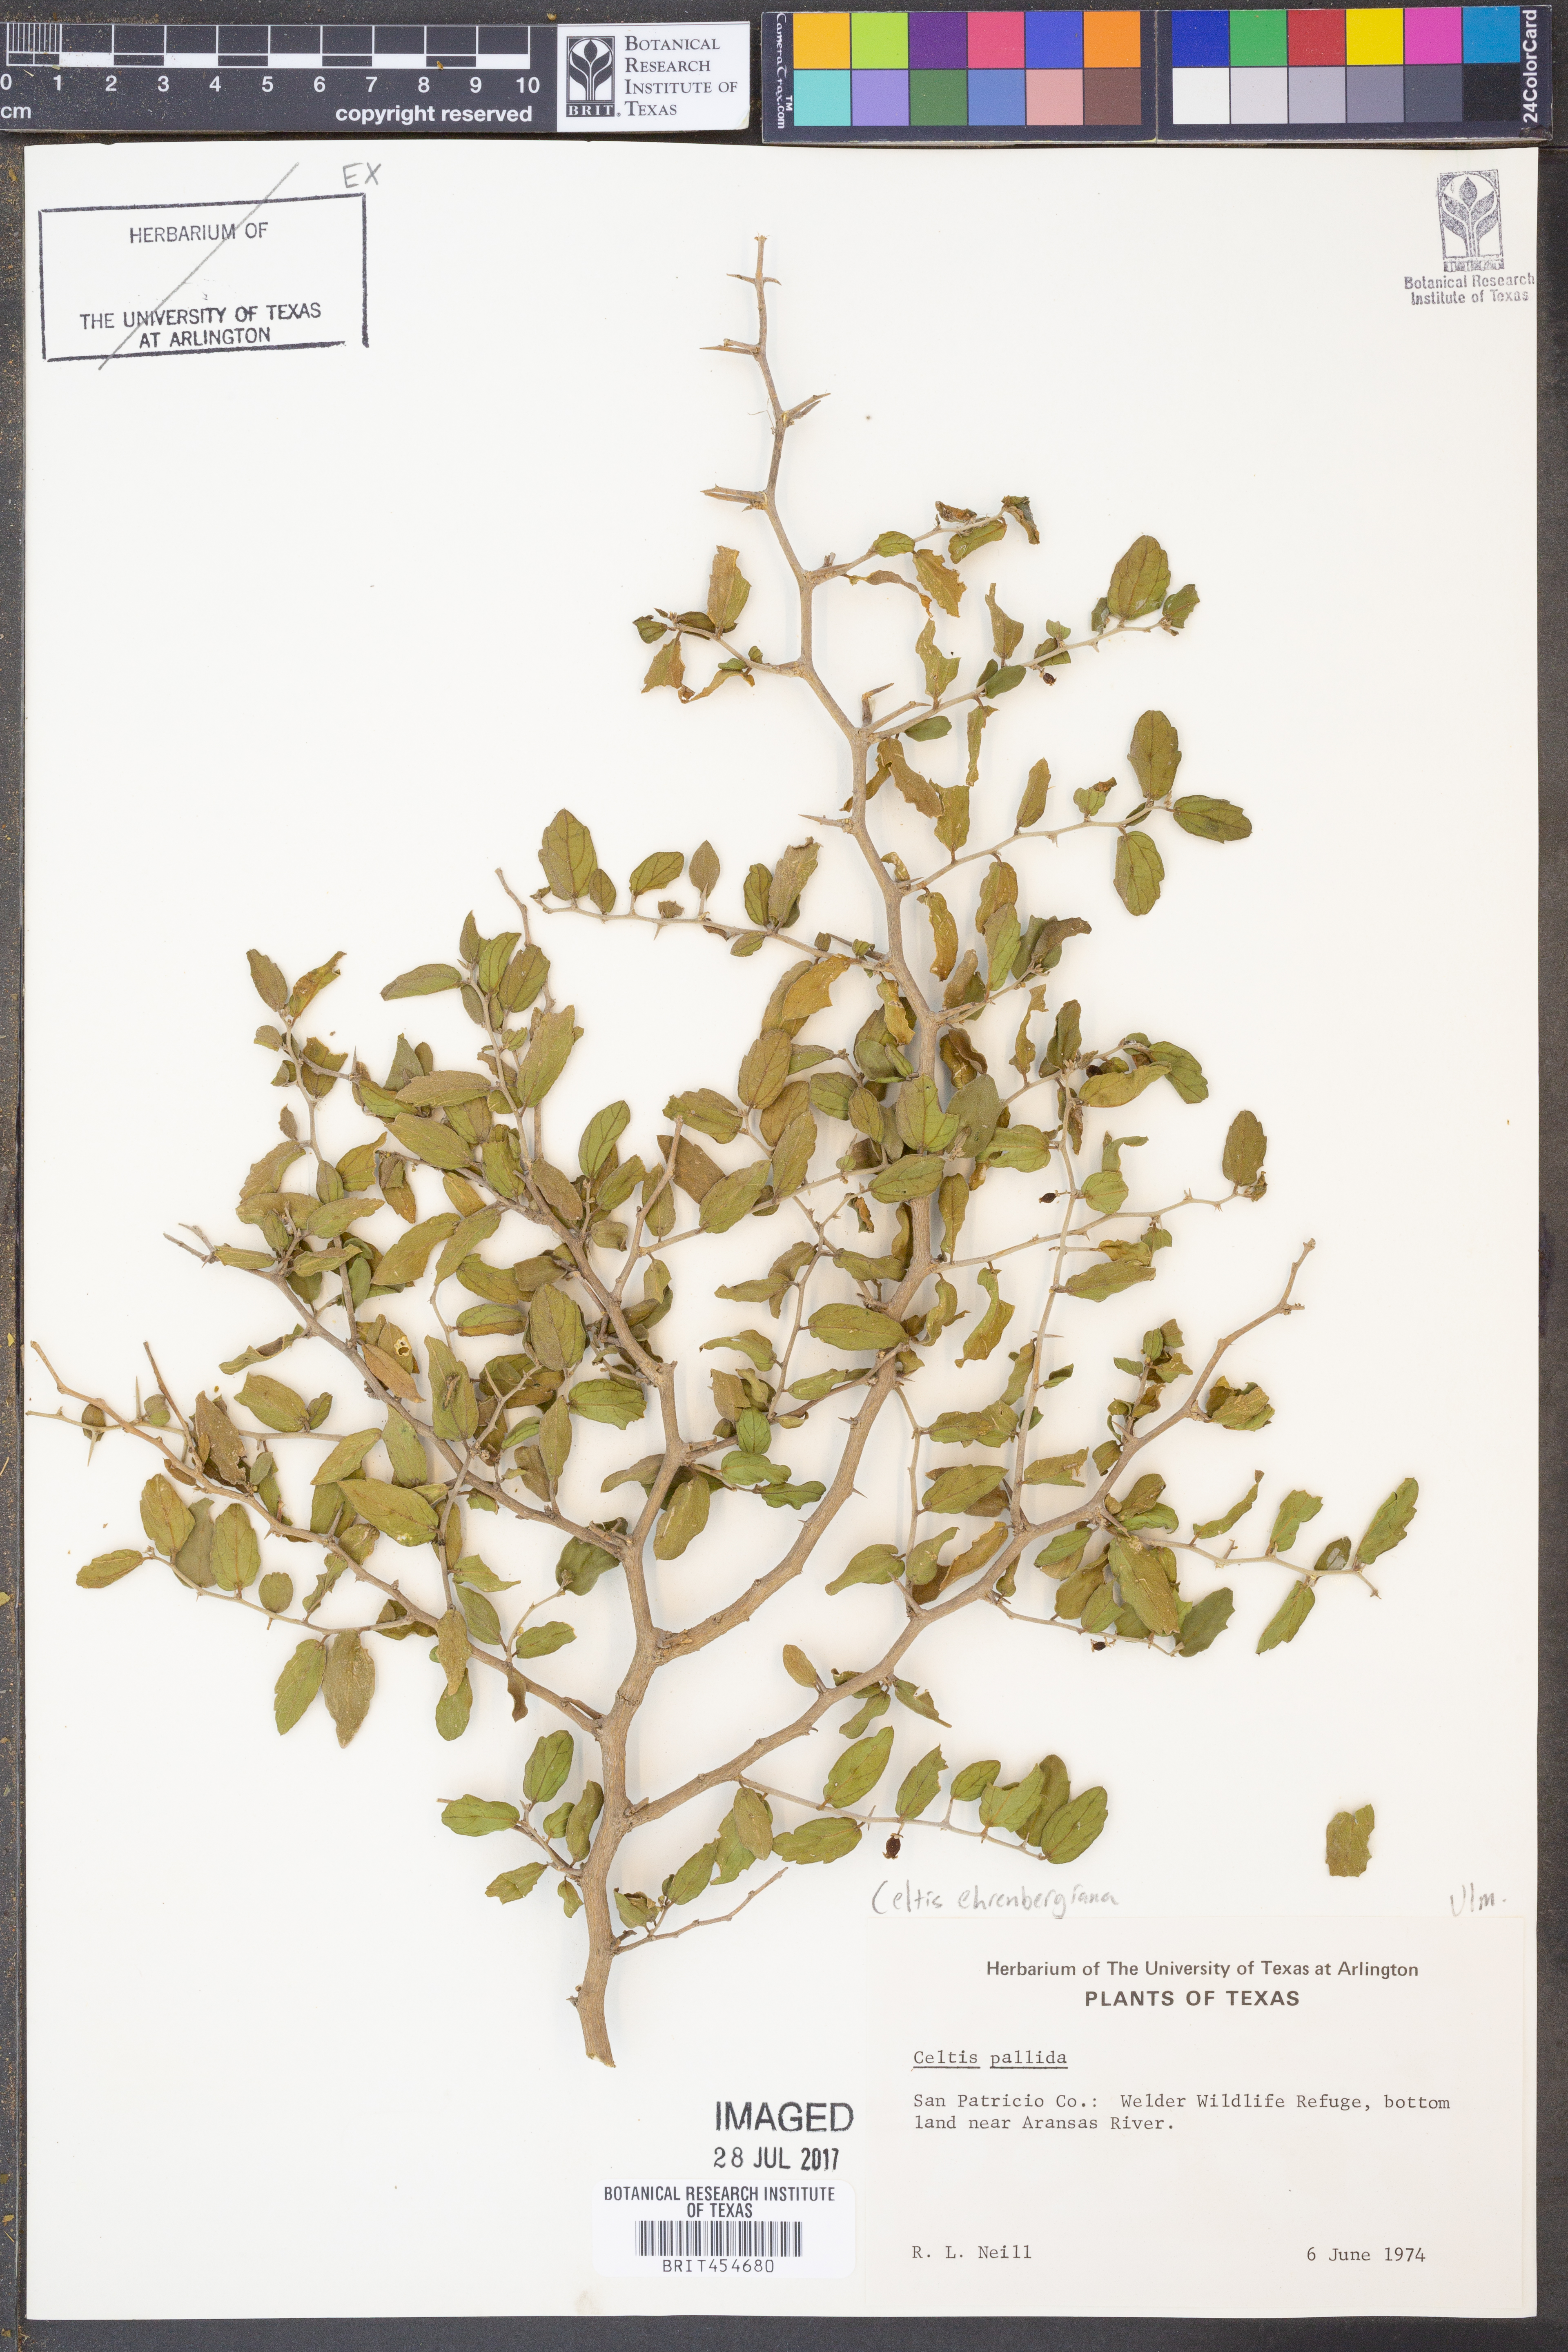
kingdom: Plantae
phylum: Tracheophyta
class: Magnoliopsida
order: Rosales
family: Cannabaceae
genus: Celtis
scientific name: Celtis pallida
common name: Desert hackberry
